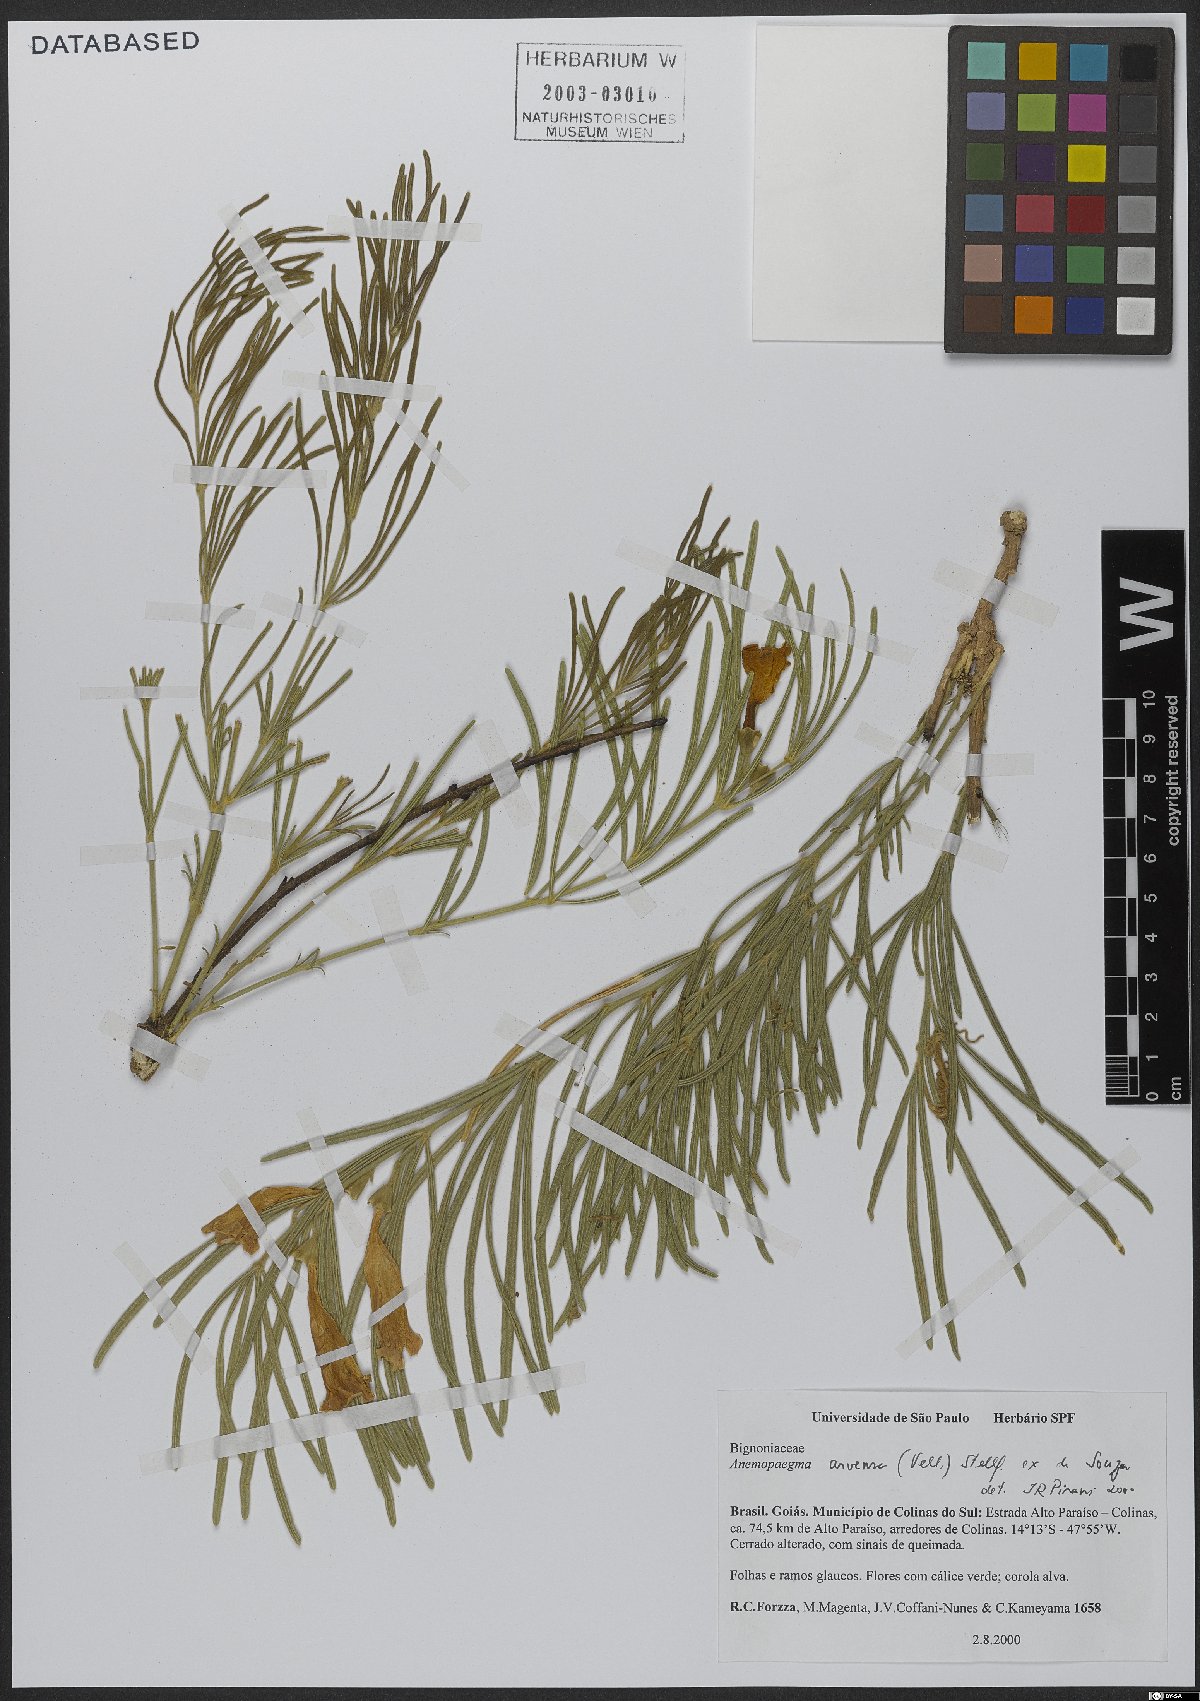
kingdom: Plantae
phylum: Tracheophyta
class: Magnoliopsida
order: Lamiales
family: Bignoniaceae
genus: Anemopaegma
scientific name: Anemopaegma arvense
